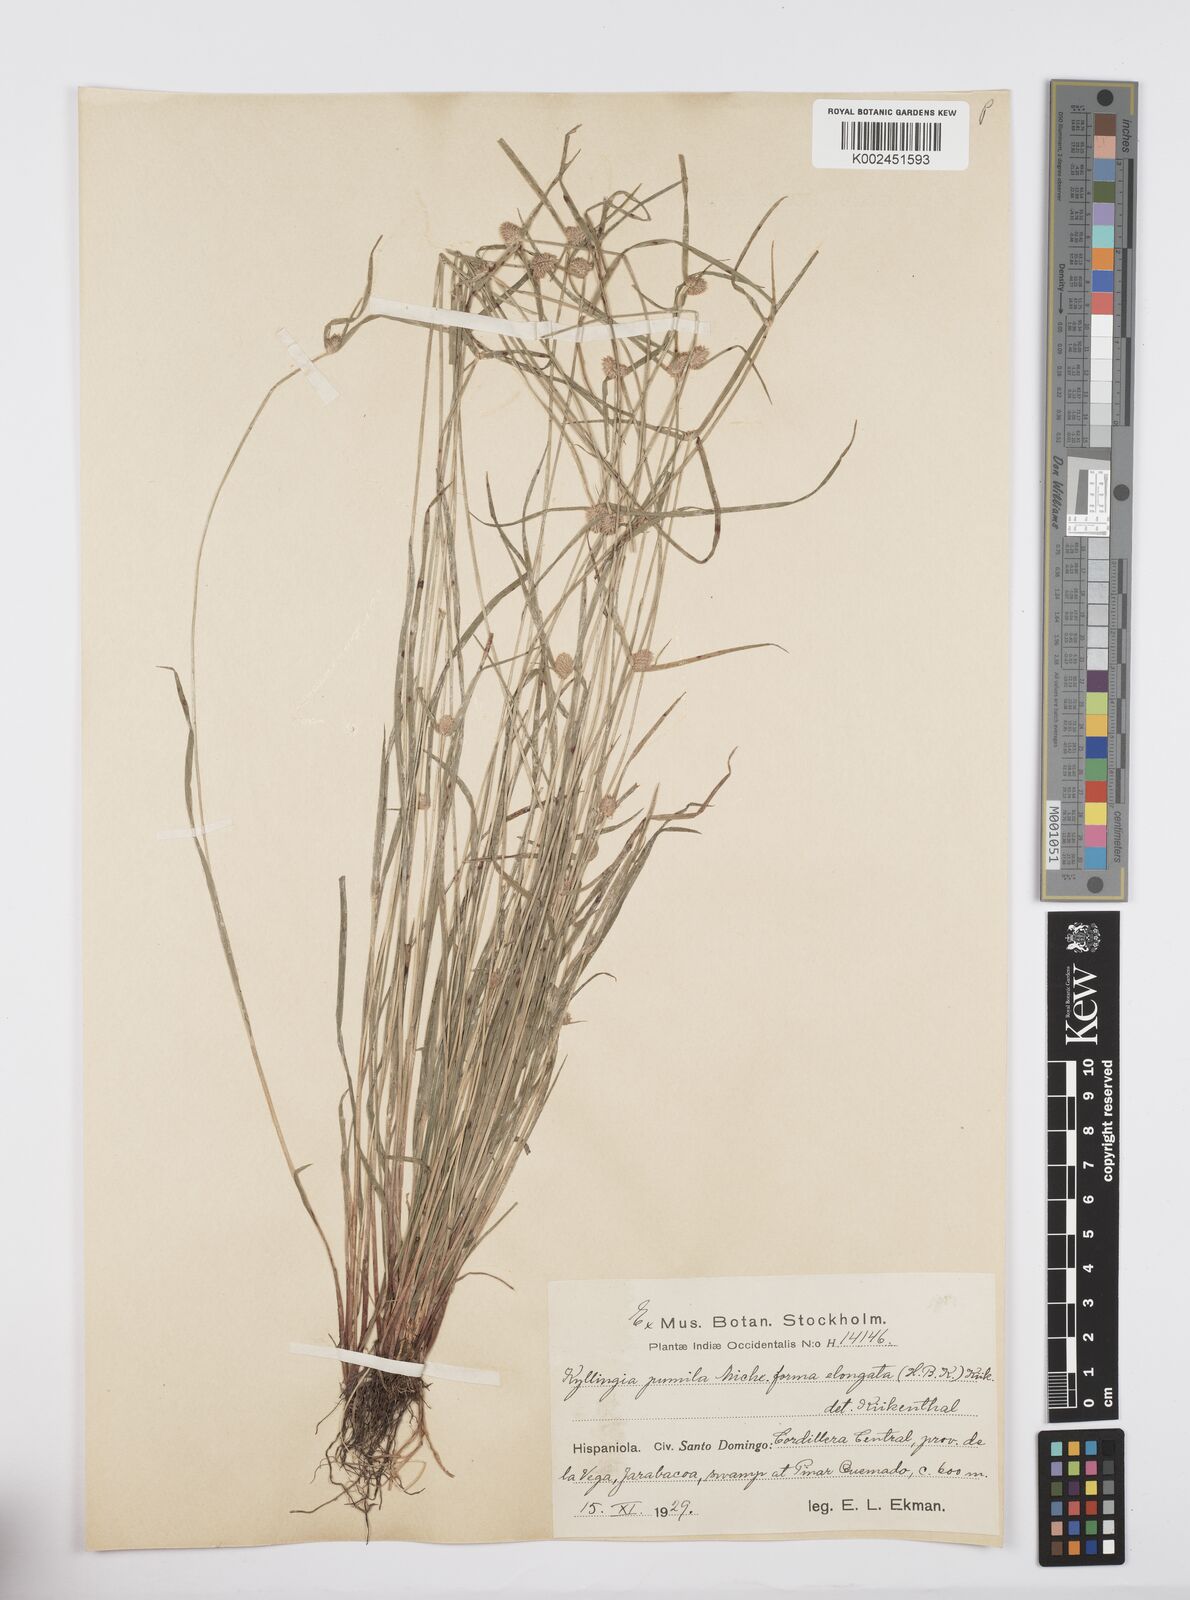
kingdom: Plantae
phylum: Tracheophyta
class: Liliopsida
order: Poales
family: Cyperaceae
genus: Cyperus
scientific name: Cyperus
